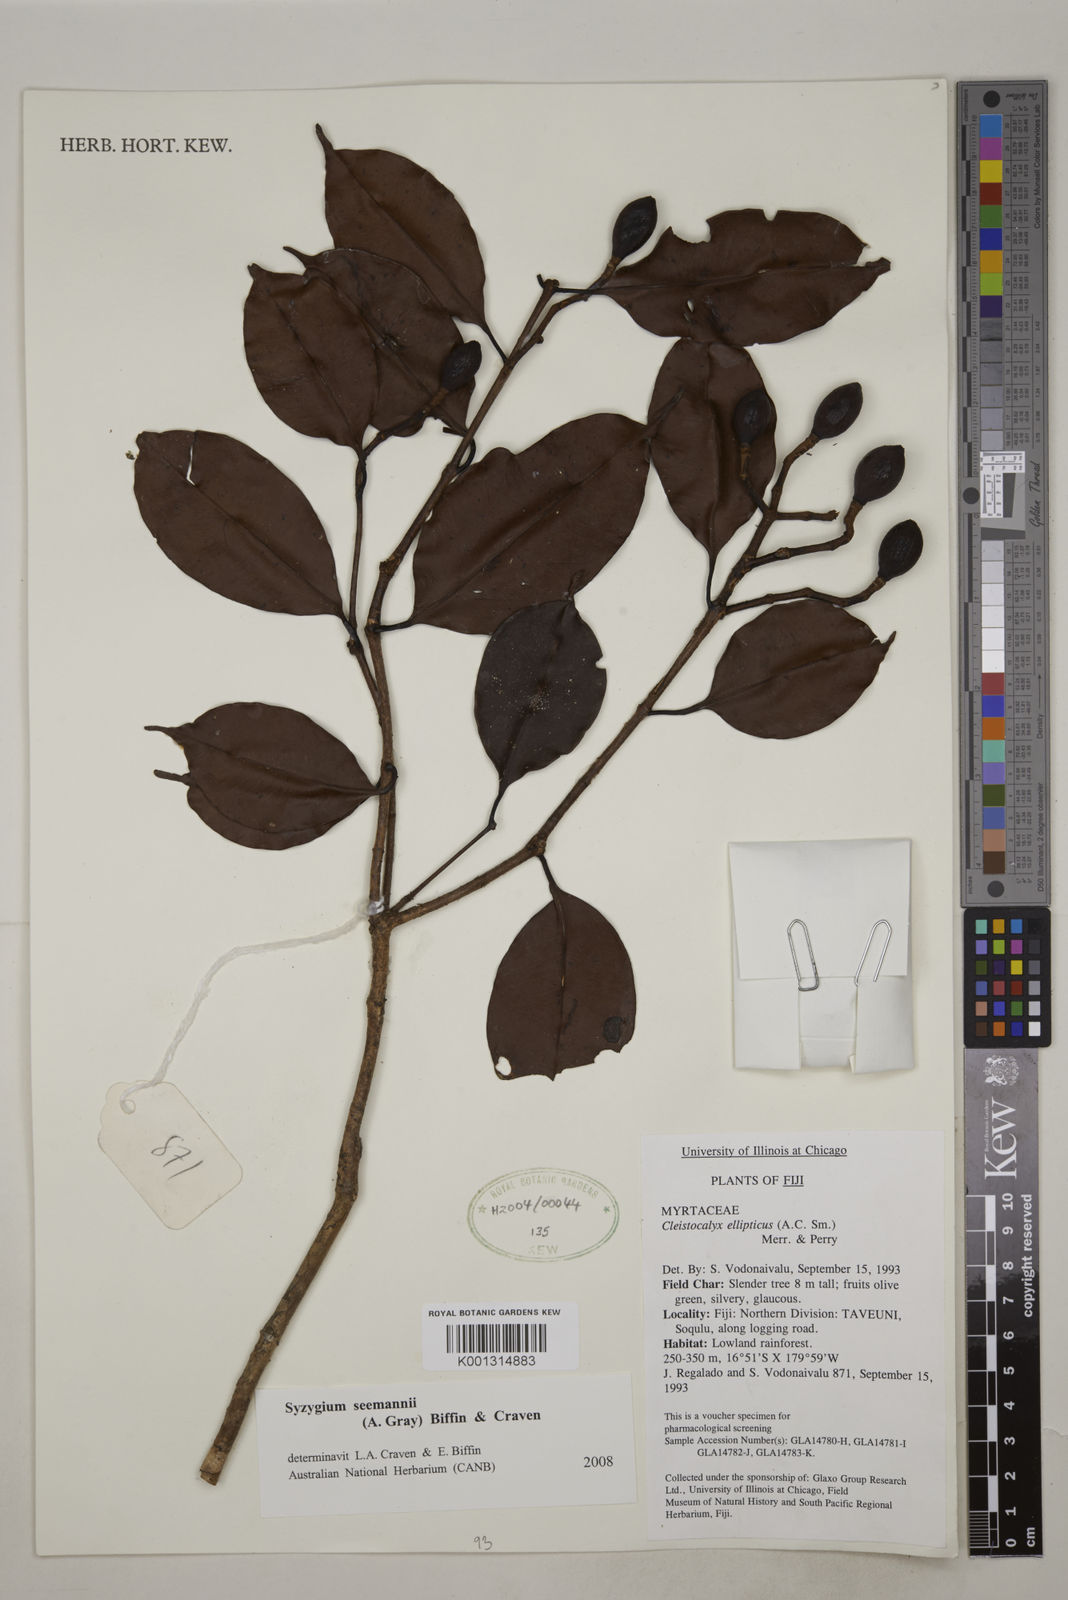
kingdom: Plantae
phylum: Tracheophyta
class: Magnoliopsida
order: Myrtales
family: Myrtaceae
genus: Syzygium
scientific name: Syzygium seemannii
